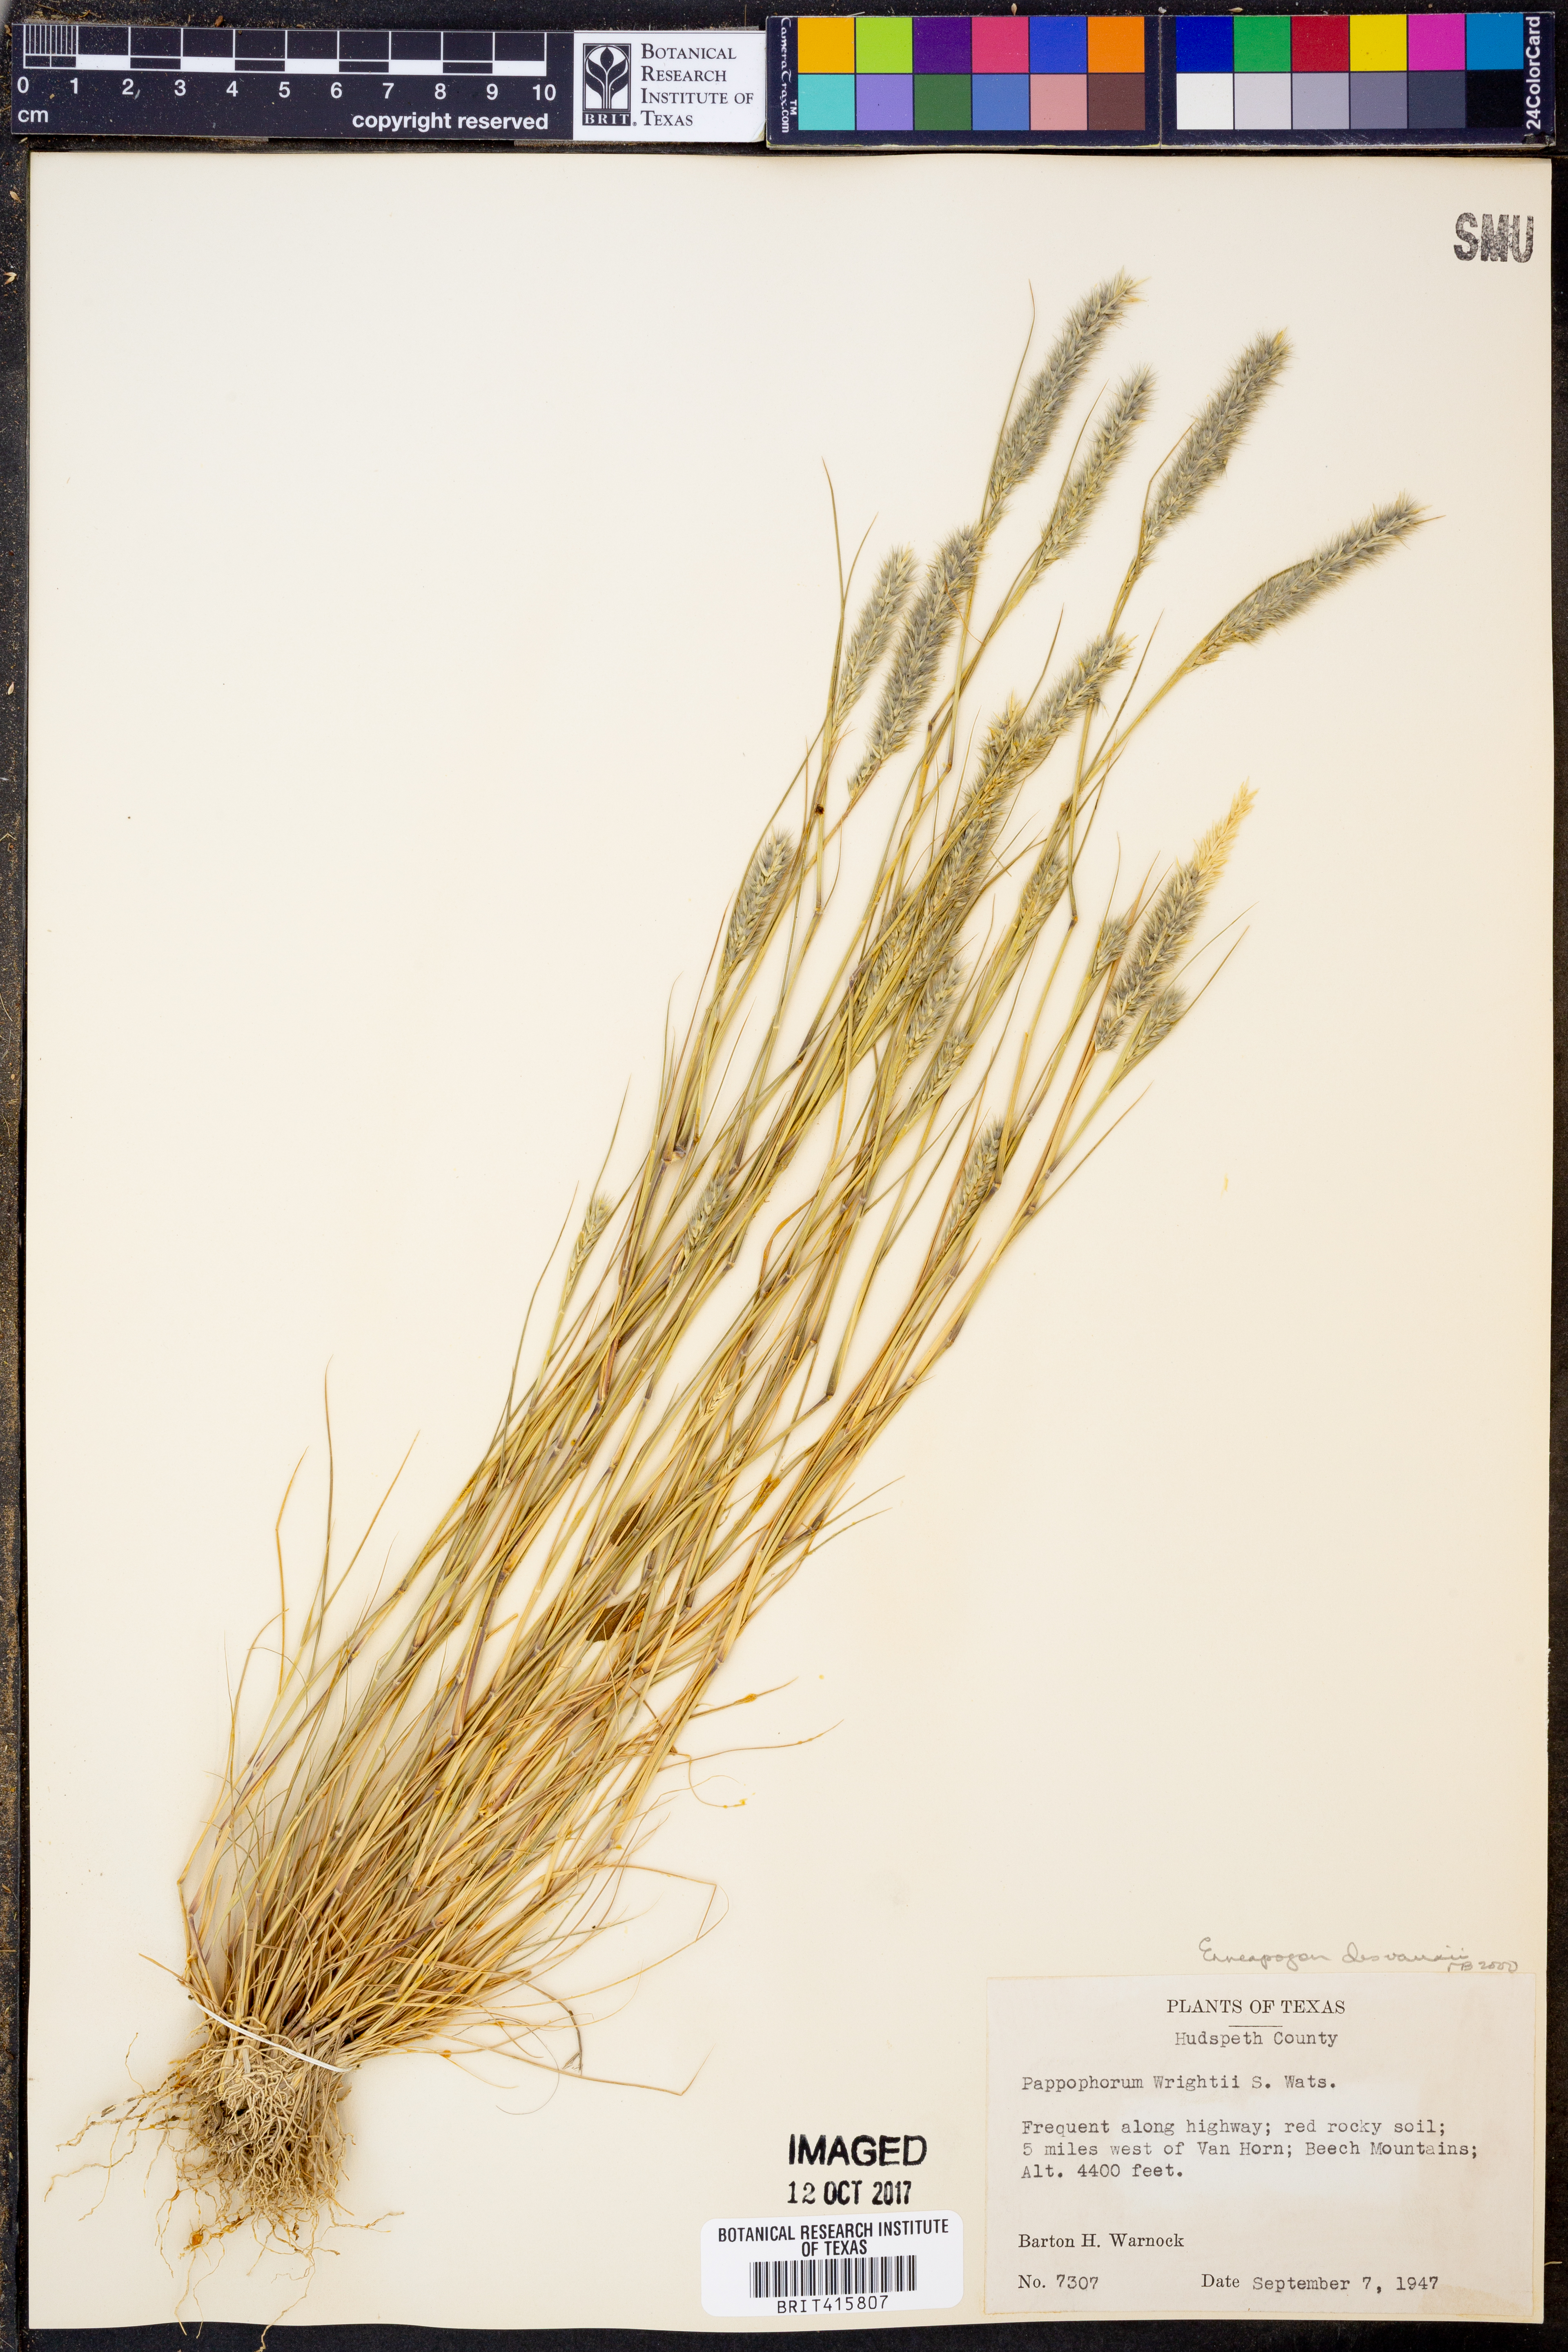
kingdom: Plantae
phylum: Tracheophyta
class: Liliopsida
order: Poales
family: Poaceae
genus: Enneapogon
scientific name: Enneapogon desvauxii
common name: Feather pappus grass
